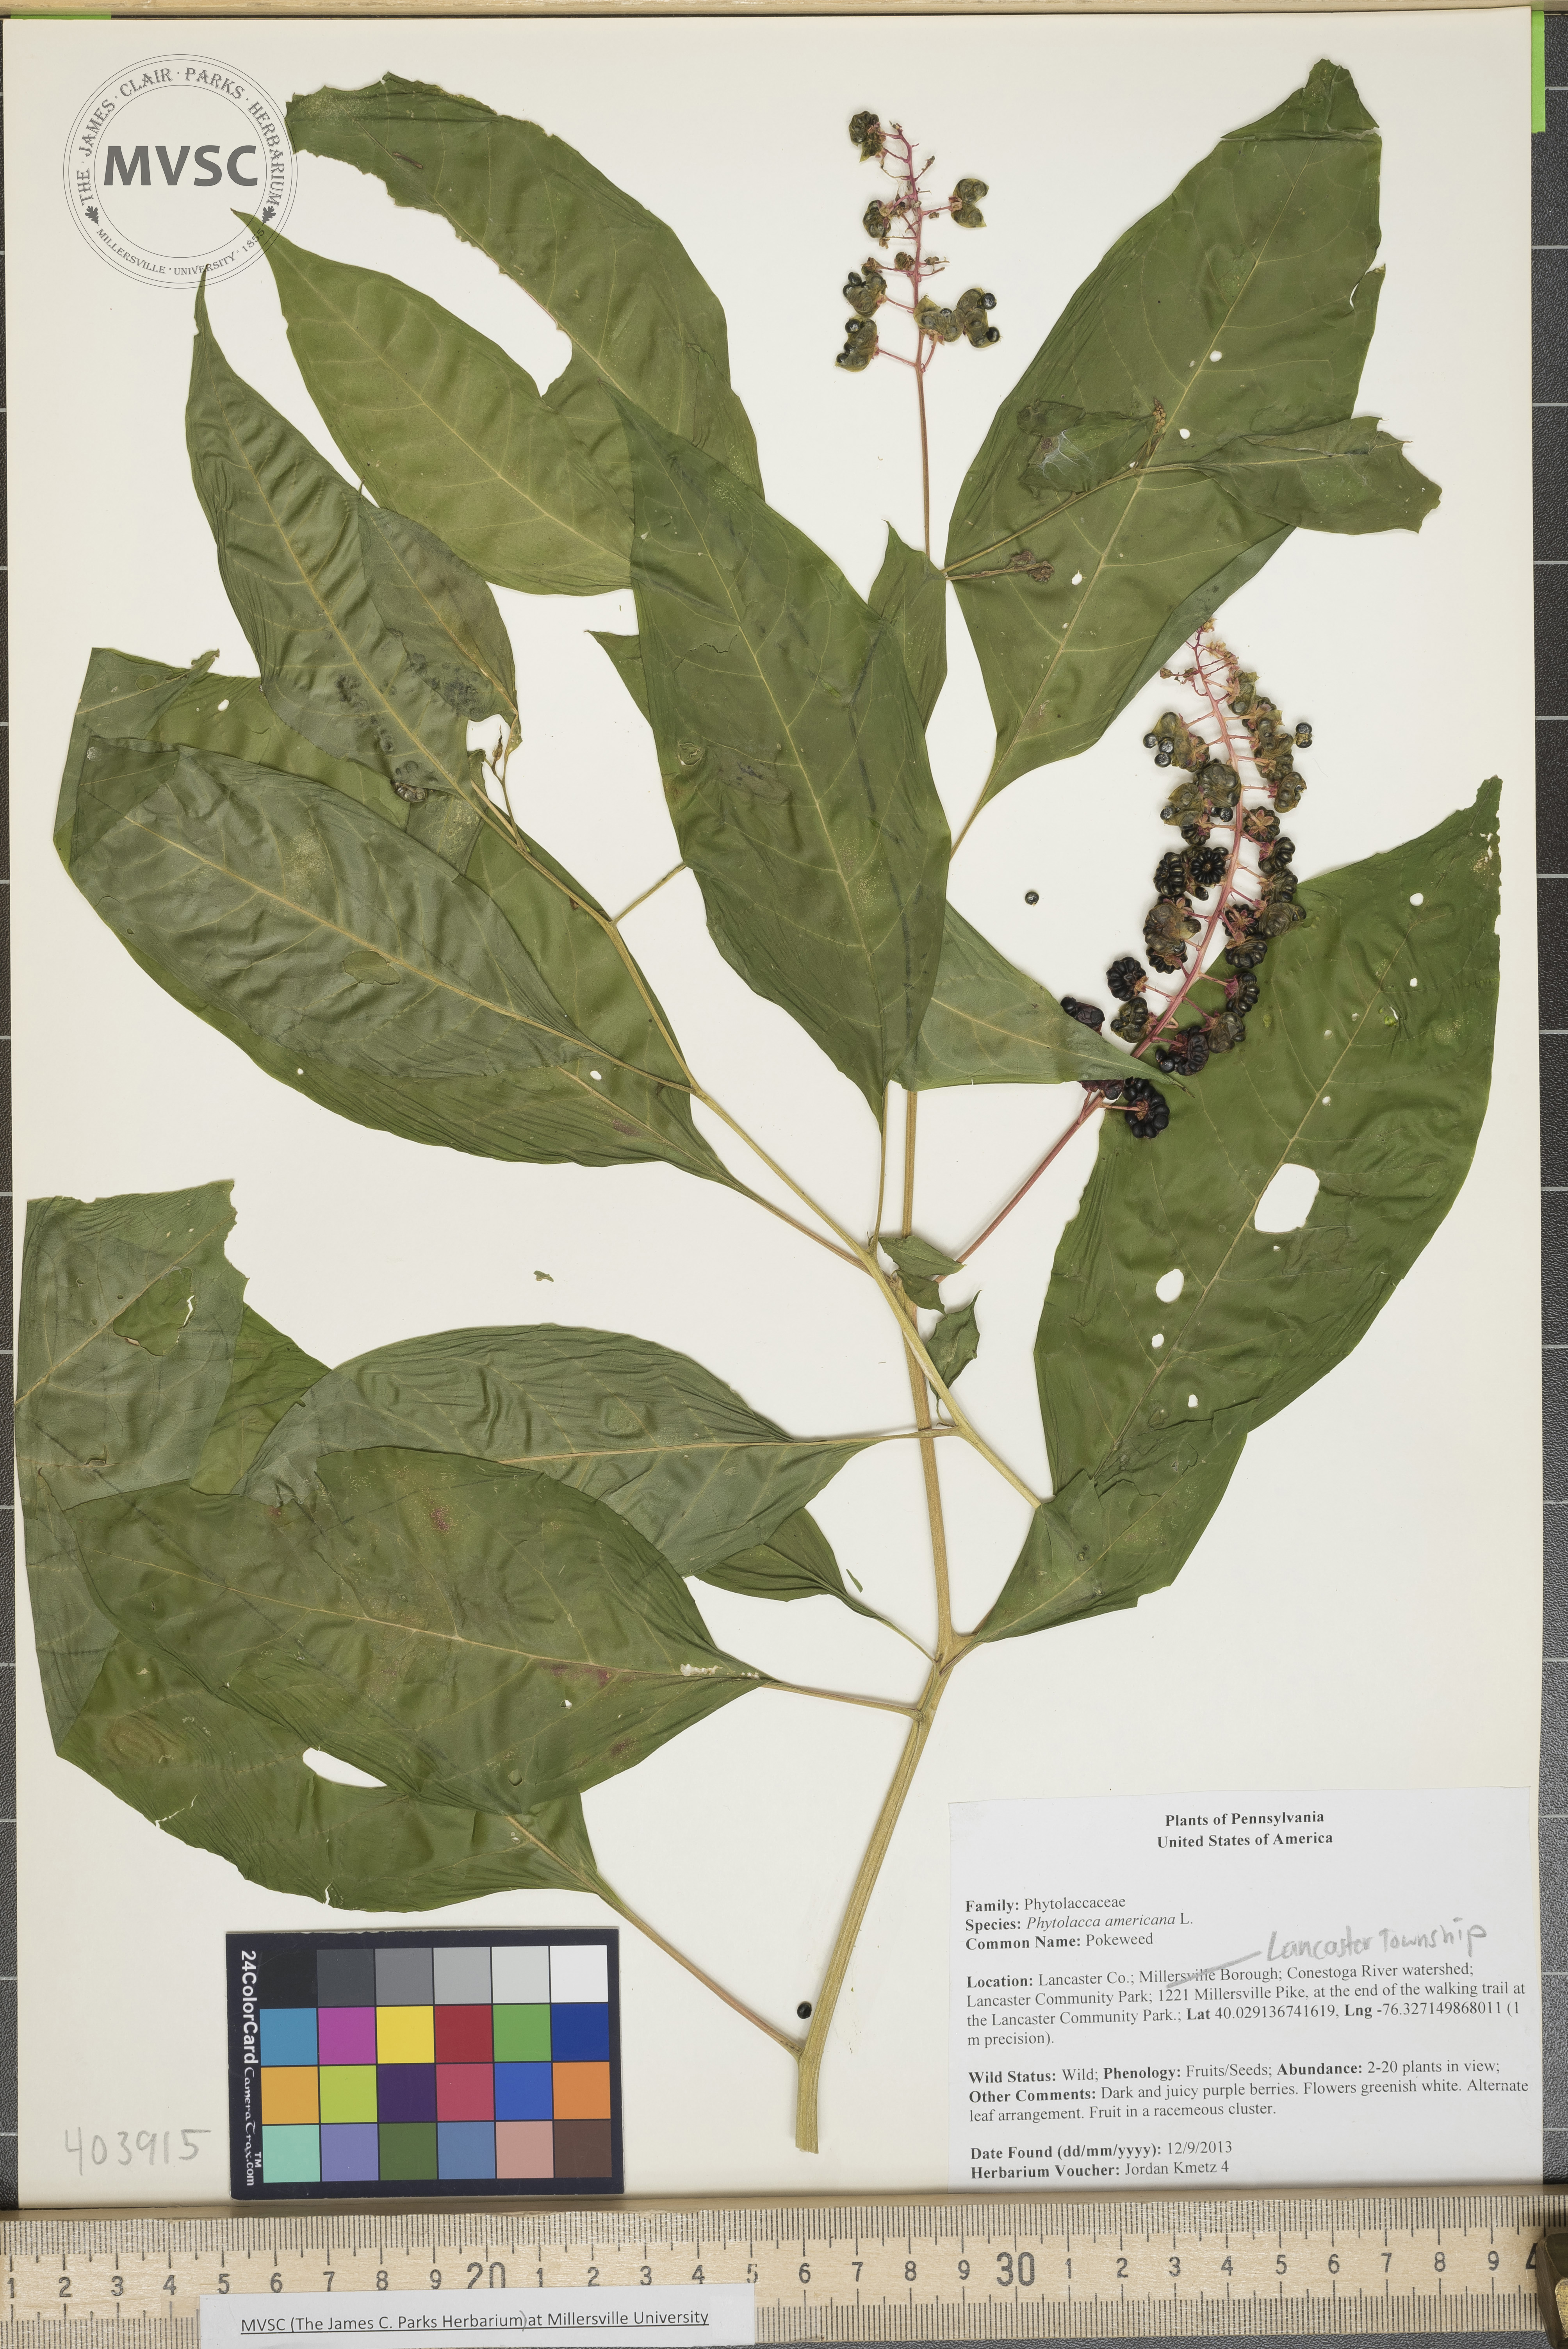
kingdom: Plantae
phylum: Tracheophyta
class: Magnoliopsida
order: Caryophyllales
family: Phytolaccaceae
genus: Phytolacca
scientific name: Phytolacca americana
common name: Pokeweed
